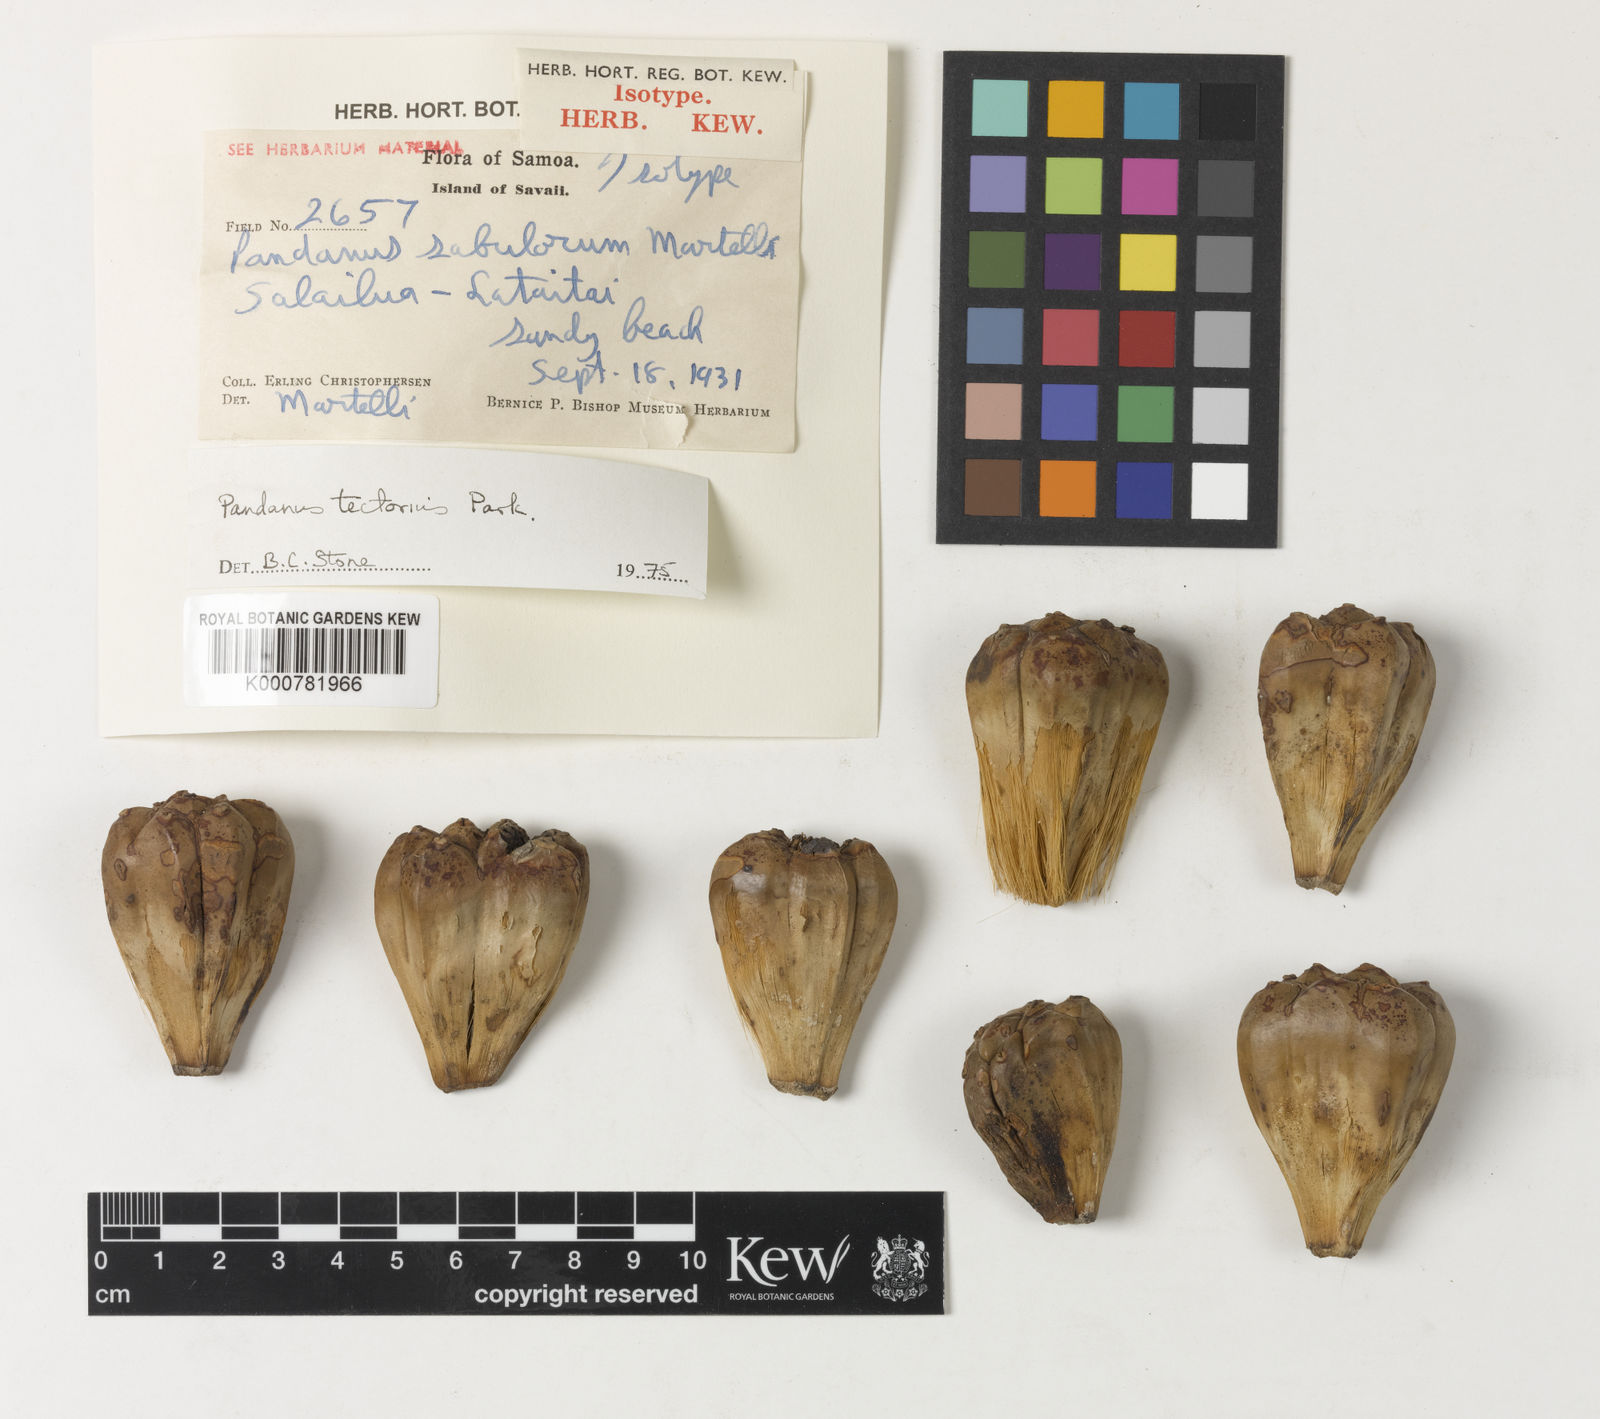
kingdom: Plantae
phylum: Tracheophyta
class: Liliopsida
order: Pandanales
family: Pandanaceae
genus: Pandanus
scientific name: Pandanus subulorum
